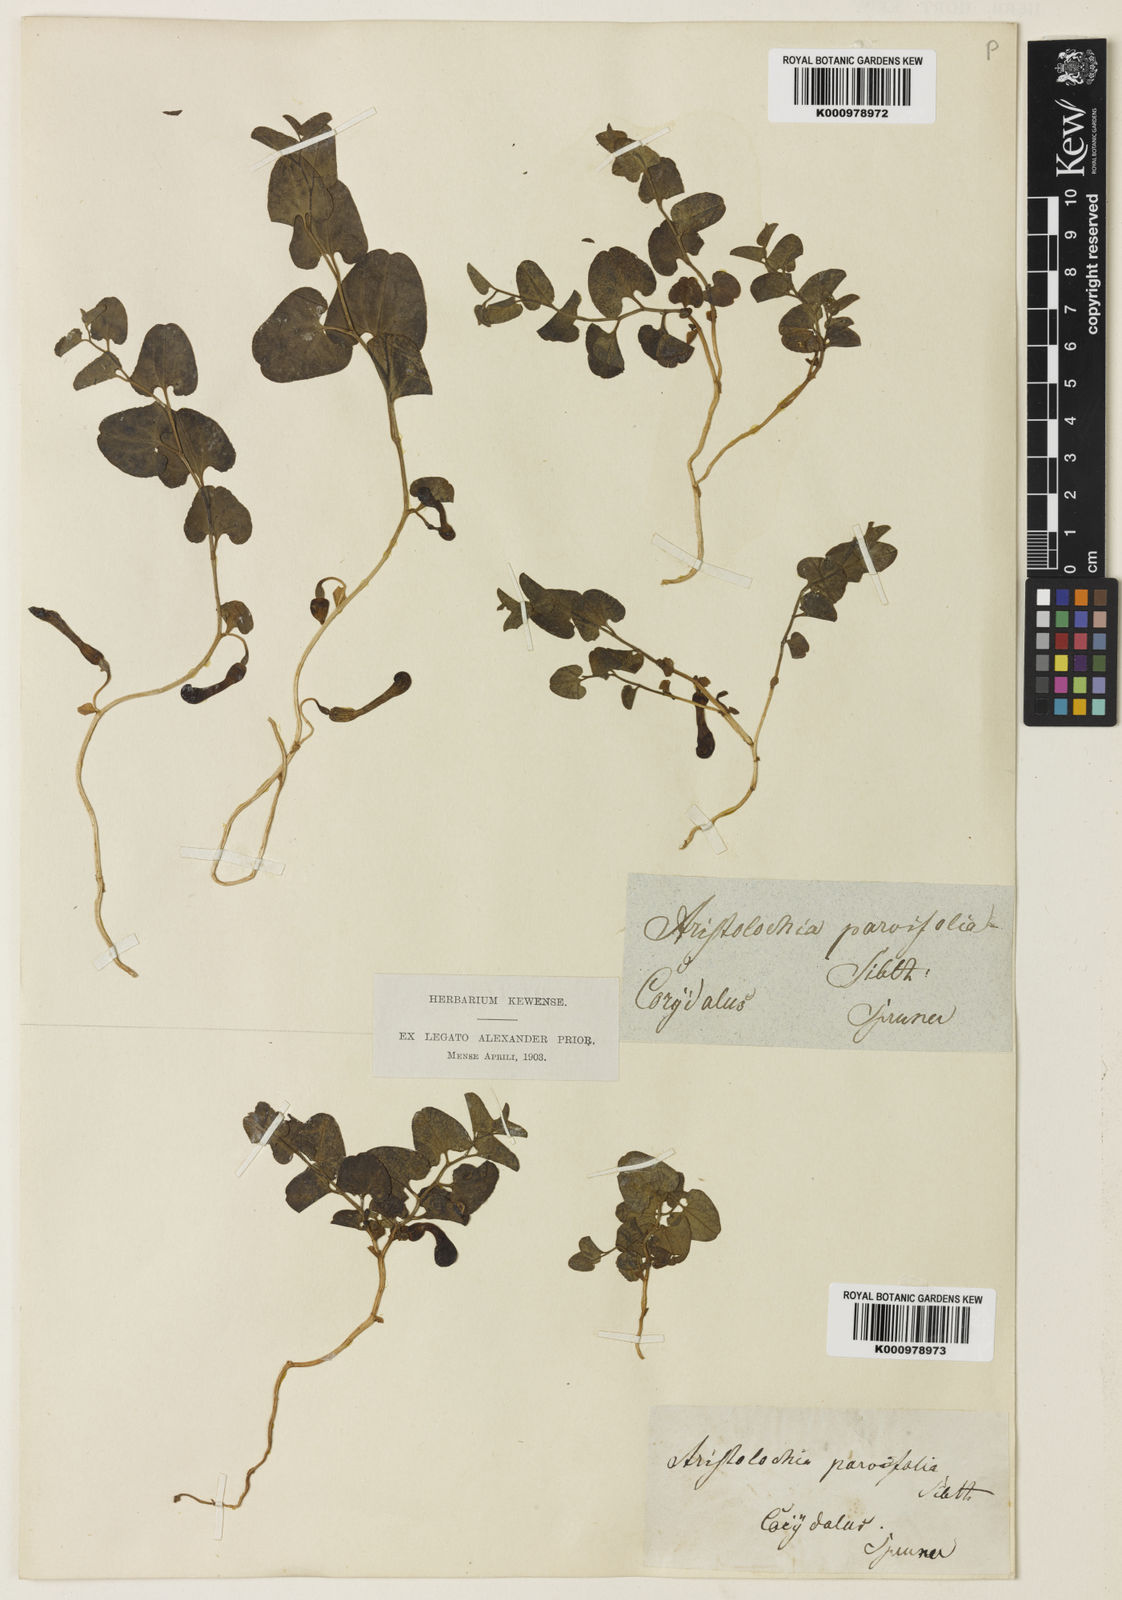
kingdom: Plantae
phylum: Tracheophyta
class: Magnoliopsida
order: Piperales
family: Aristolochiaceae
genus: Aristolochia
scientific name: Aristolochia microstoma
